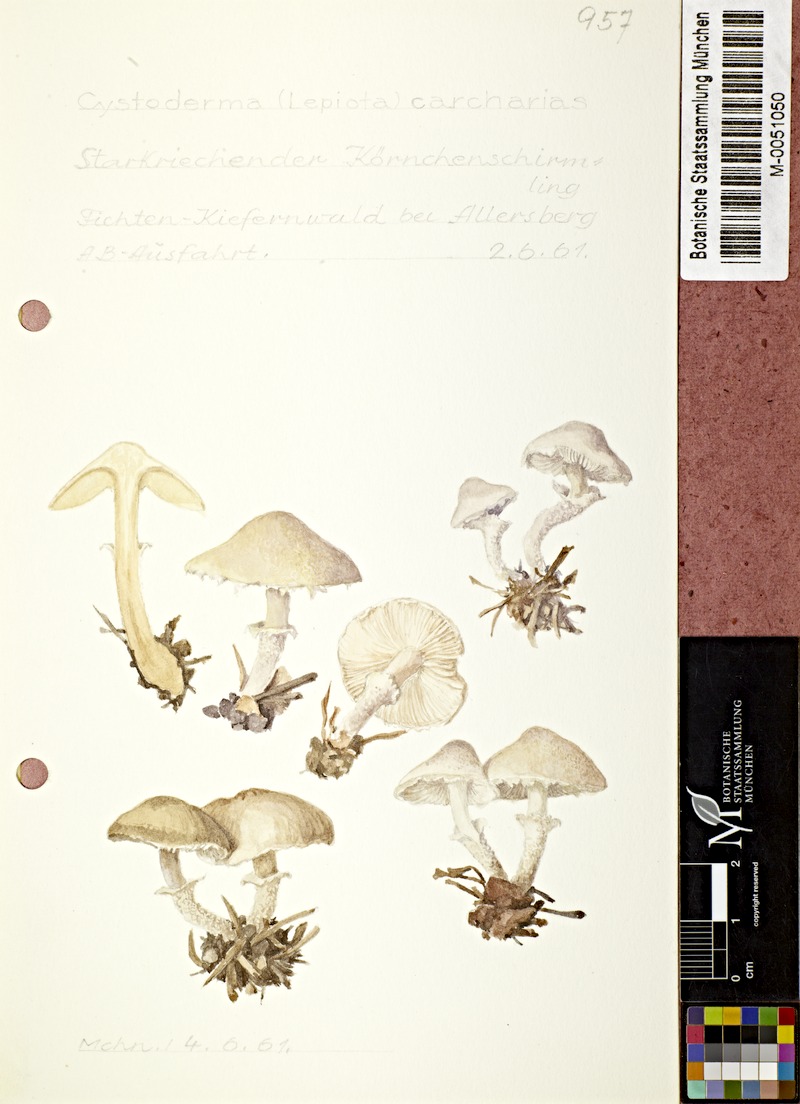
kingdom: Fungi
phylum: Basidiomycota
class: Agaricomycetes
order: Agaricales
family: Tricholomataceae
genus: Cystoderma
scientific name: Cystoderma carcharias
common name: Pearly powdercap
